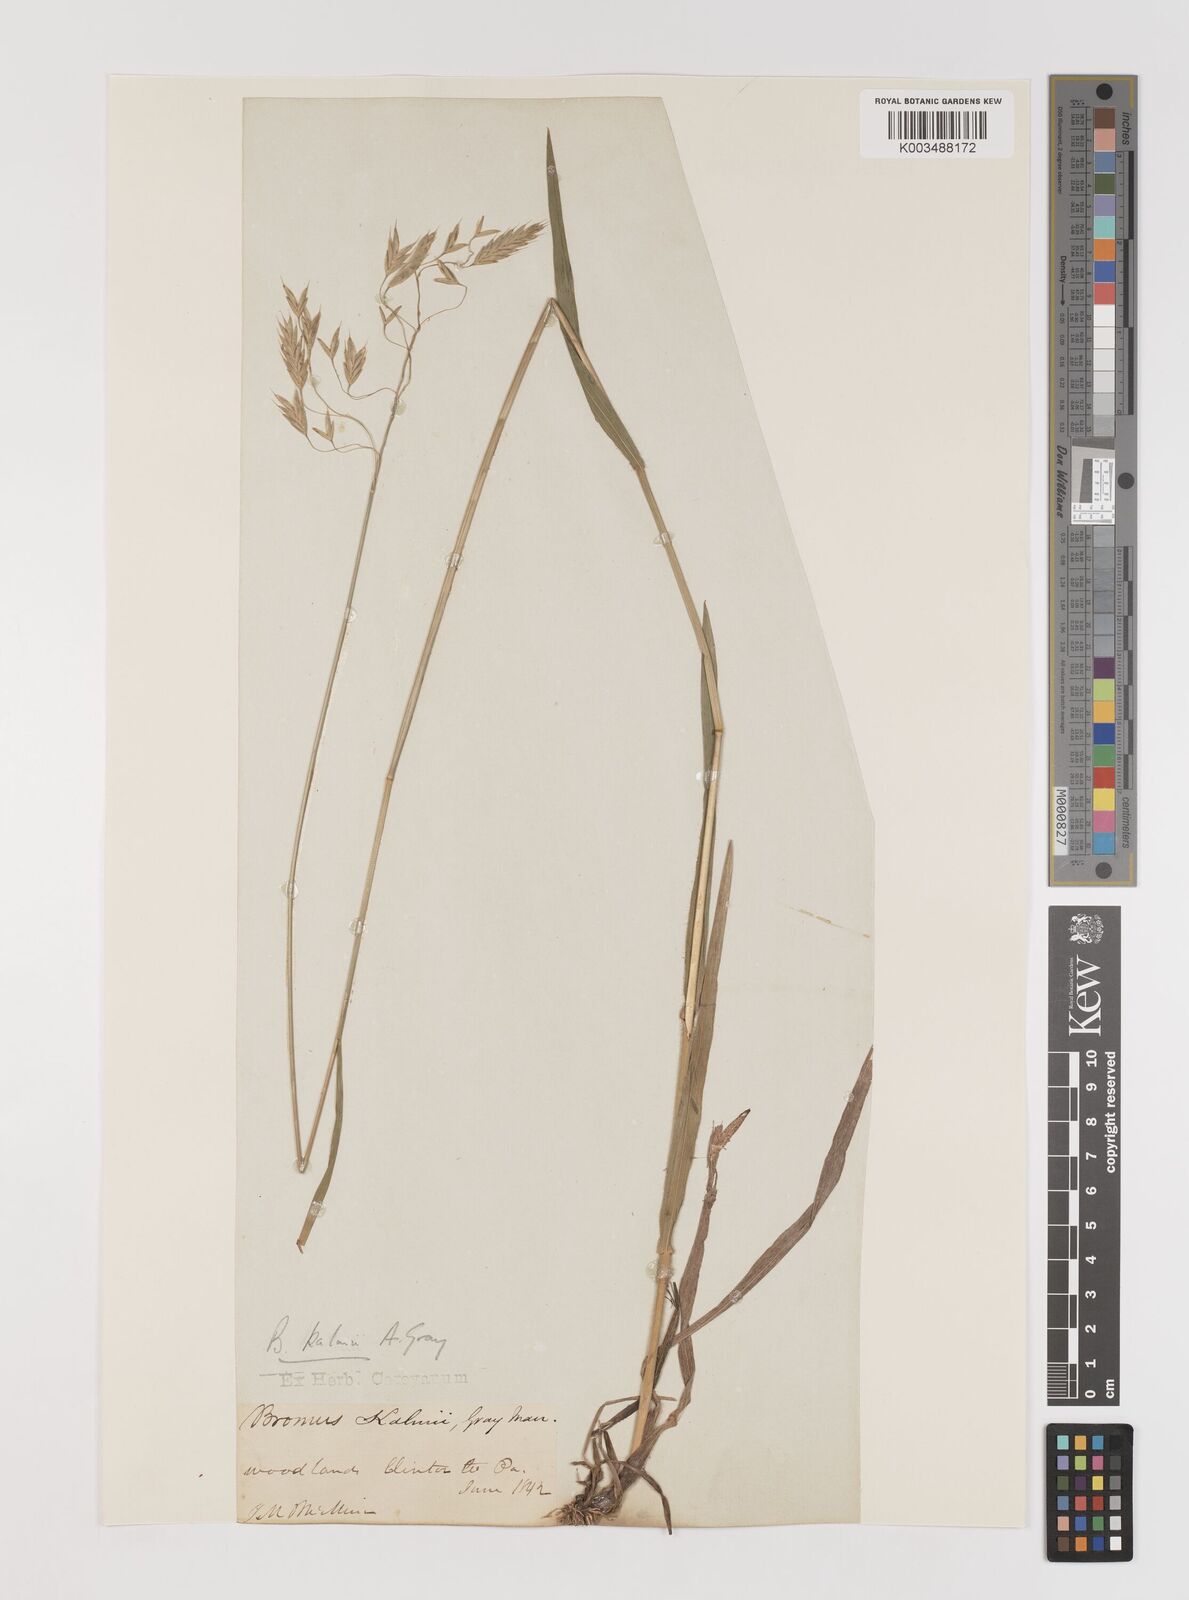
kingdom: Plantae
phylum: Tracheophyta
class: Liliopsida
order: Poales
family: Poaceae
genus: Bromus
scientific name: Bromus kalmii
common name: Kalm brome
